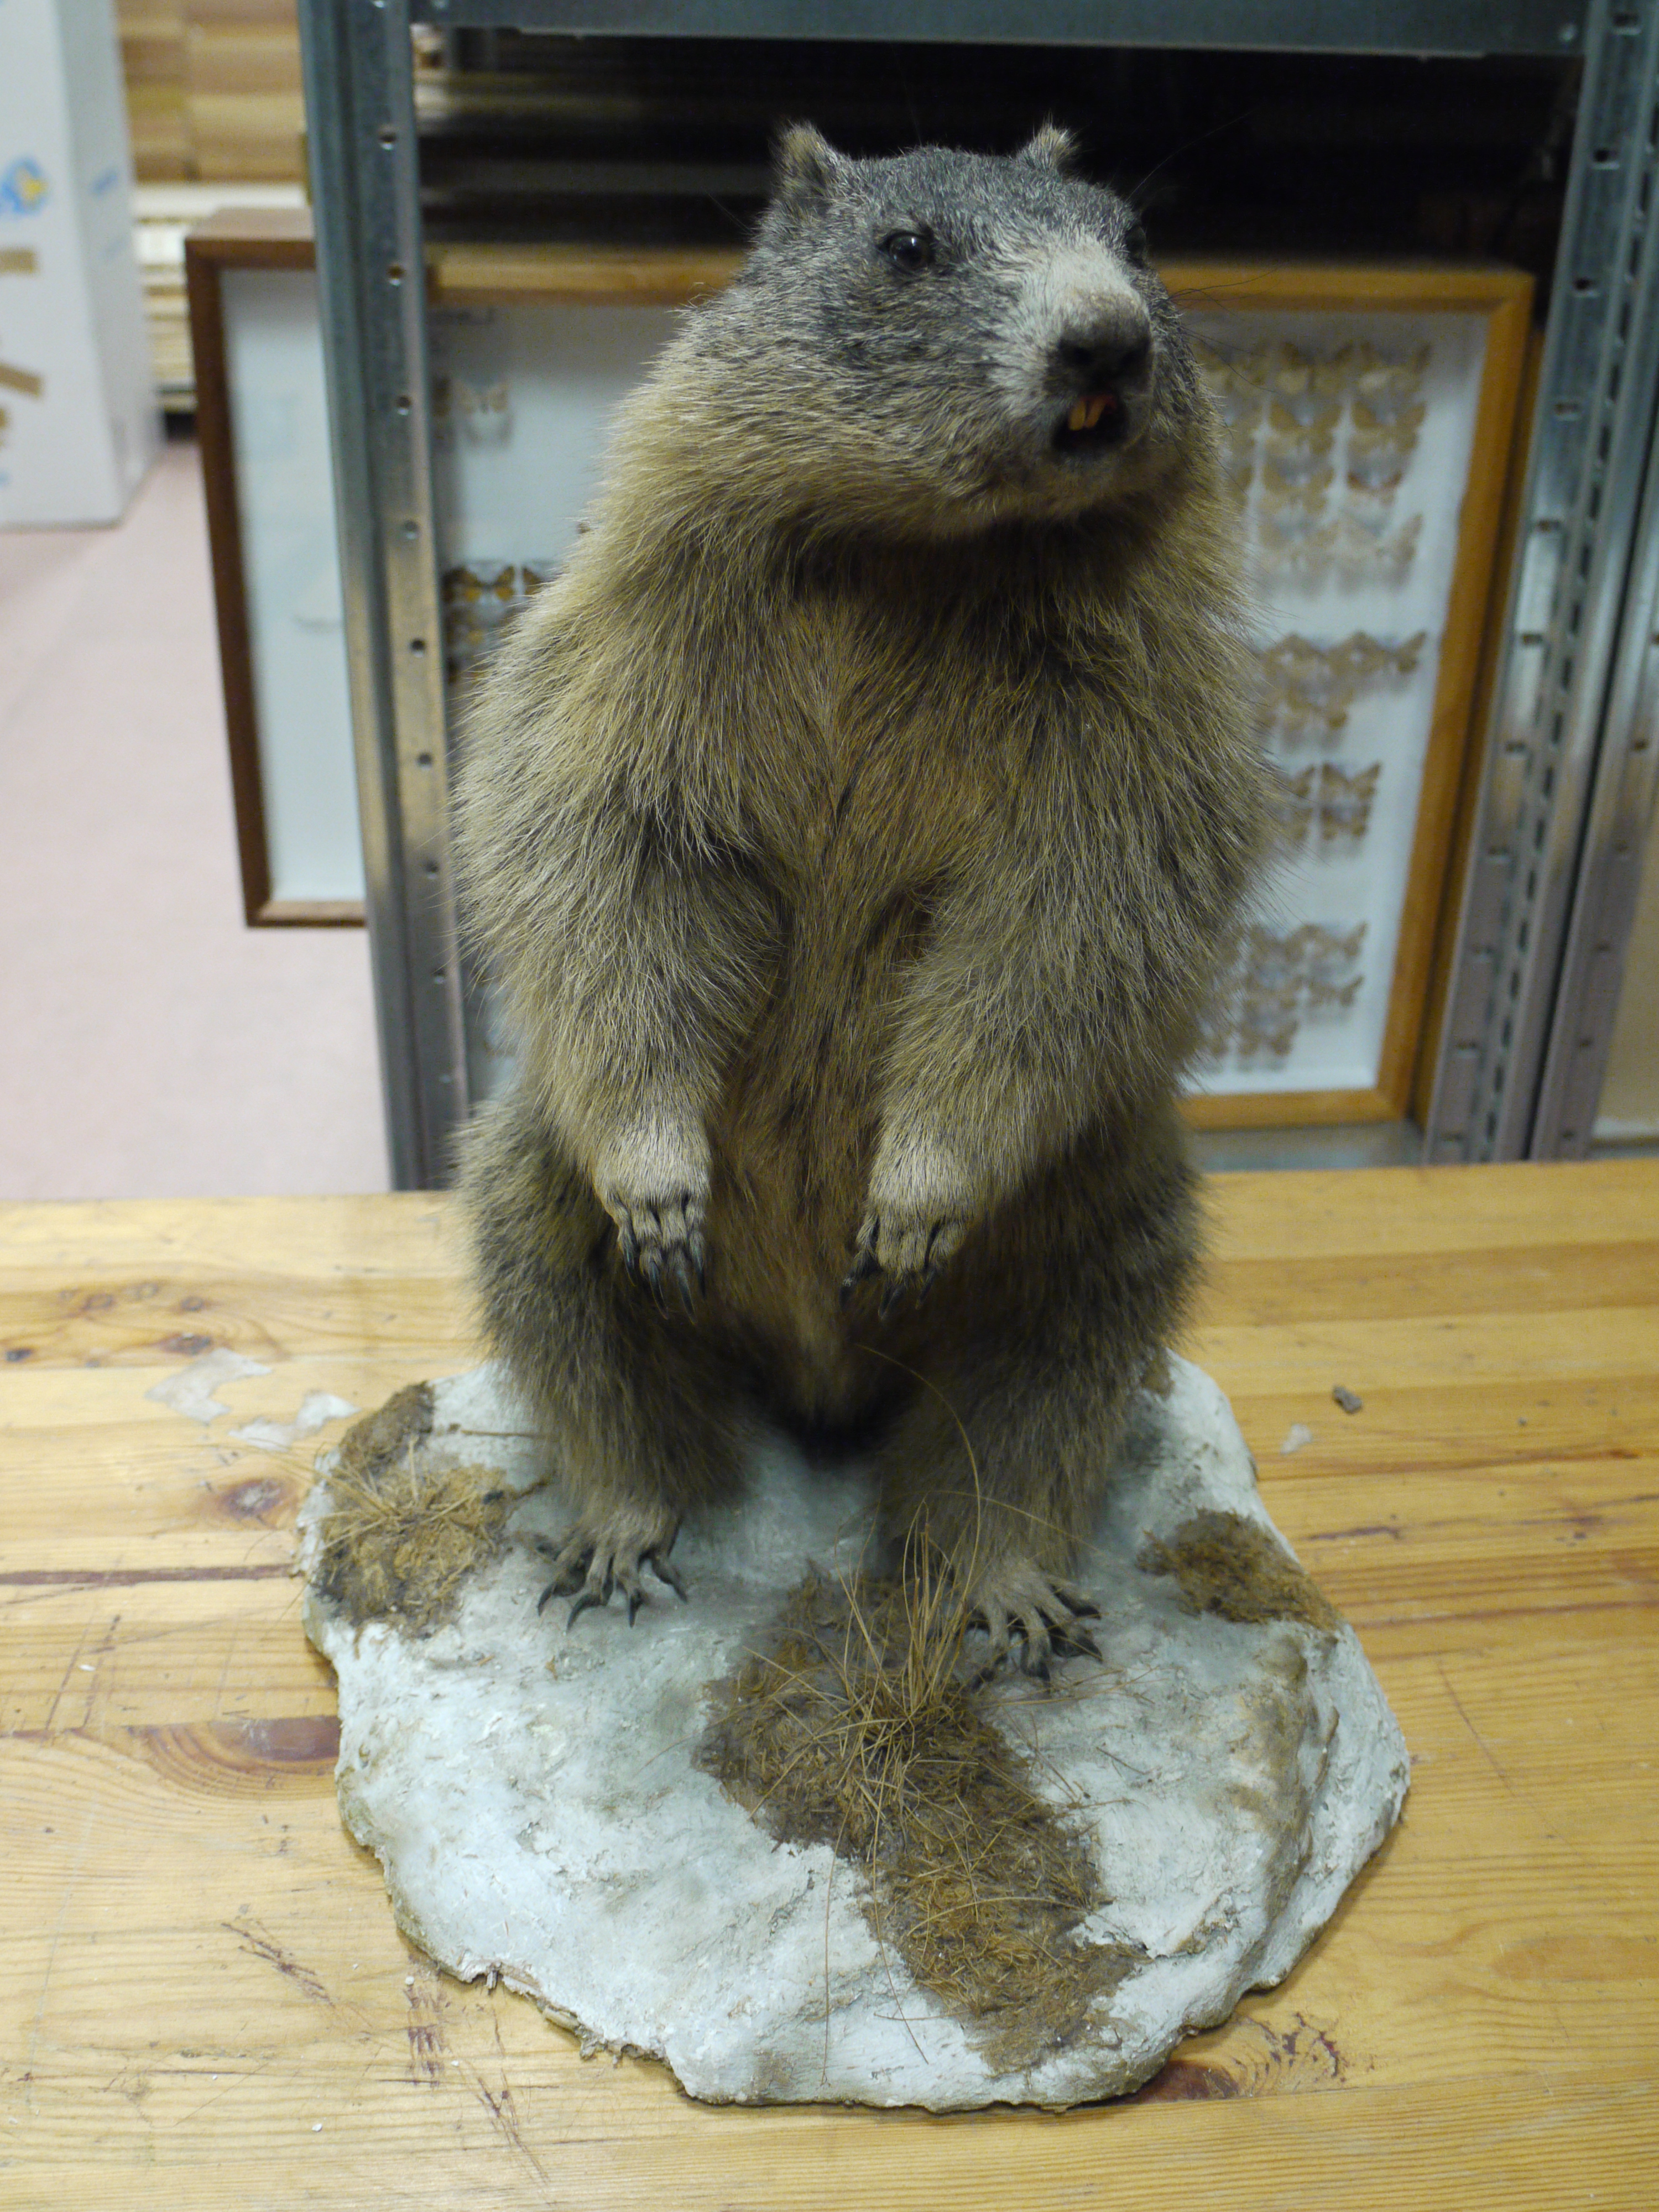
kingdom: Animalia
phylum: Chordata
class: Mammalia
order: Rodentia
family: Sciuridae
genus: Marmota
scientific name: Marmota marmota
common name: Alpine marmot
